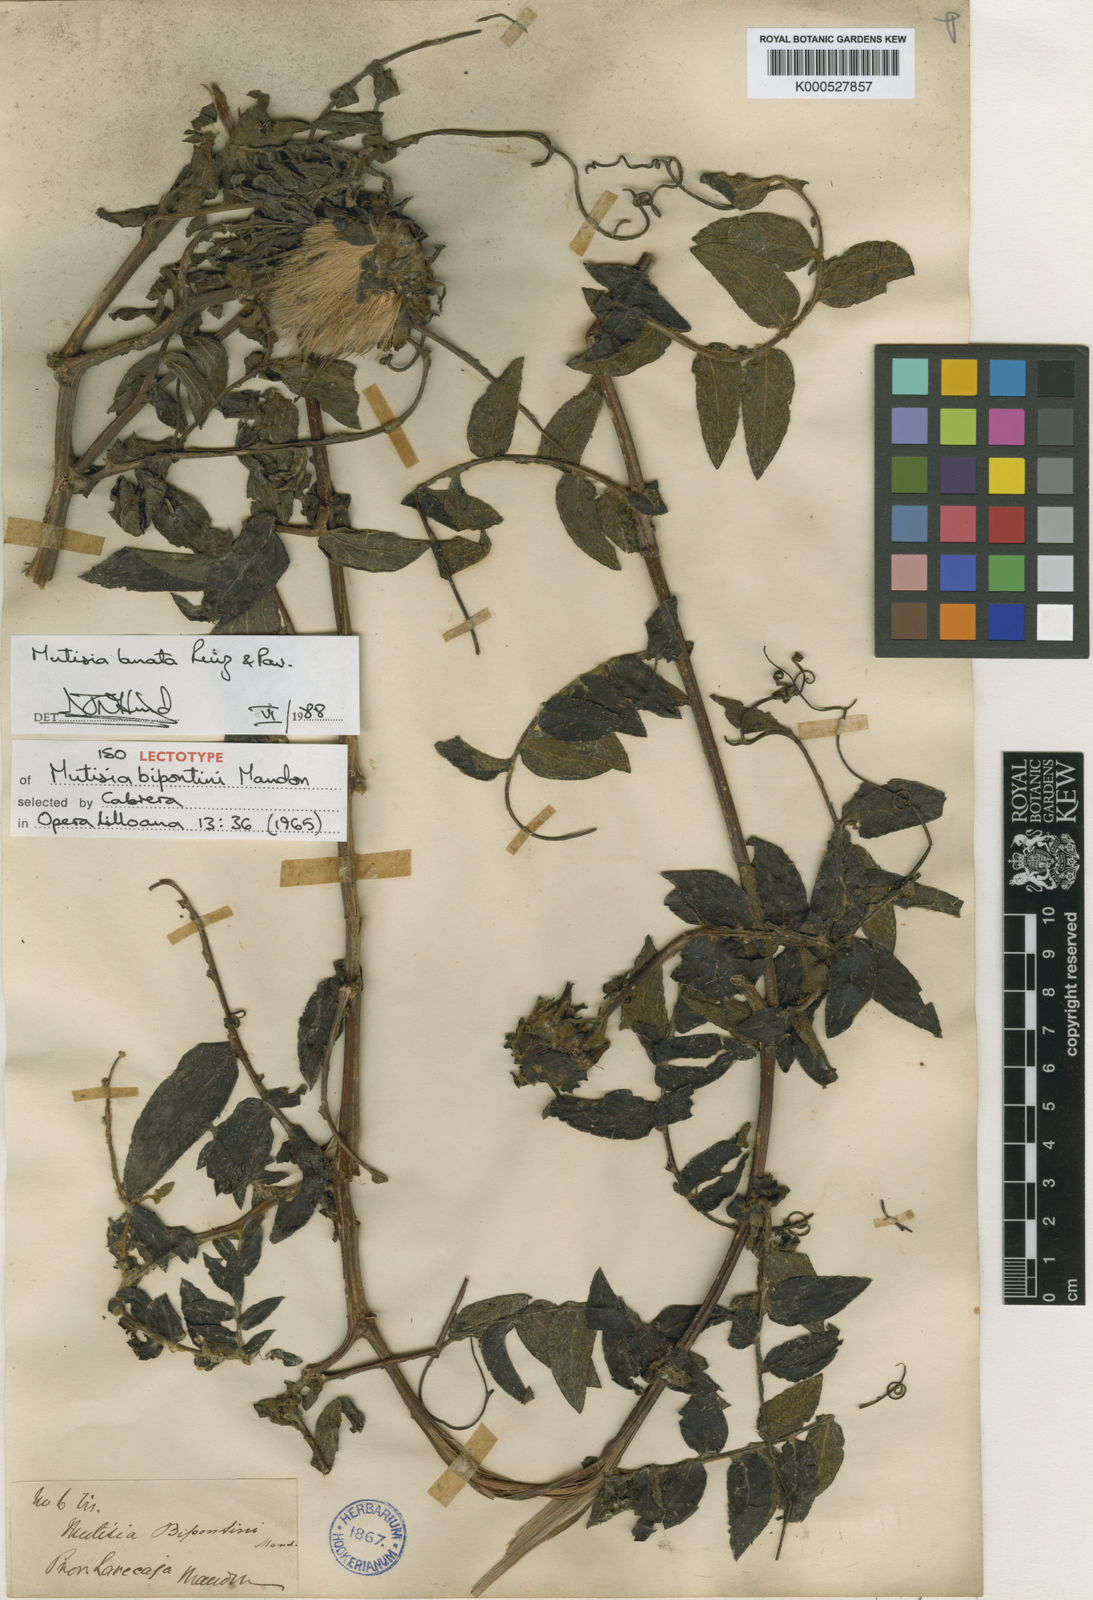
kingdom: Plantae
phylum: Tracheophyta
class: Magnoliopsida
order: Asterales
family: Asteraceae
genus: Mutisia
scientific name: Mutisia lanata
